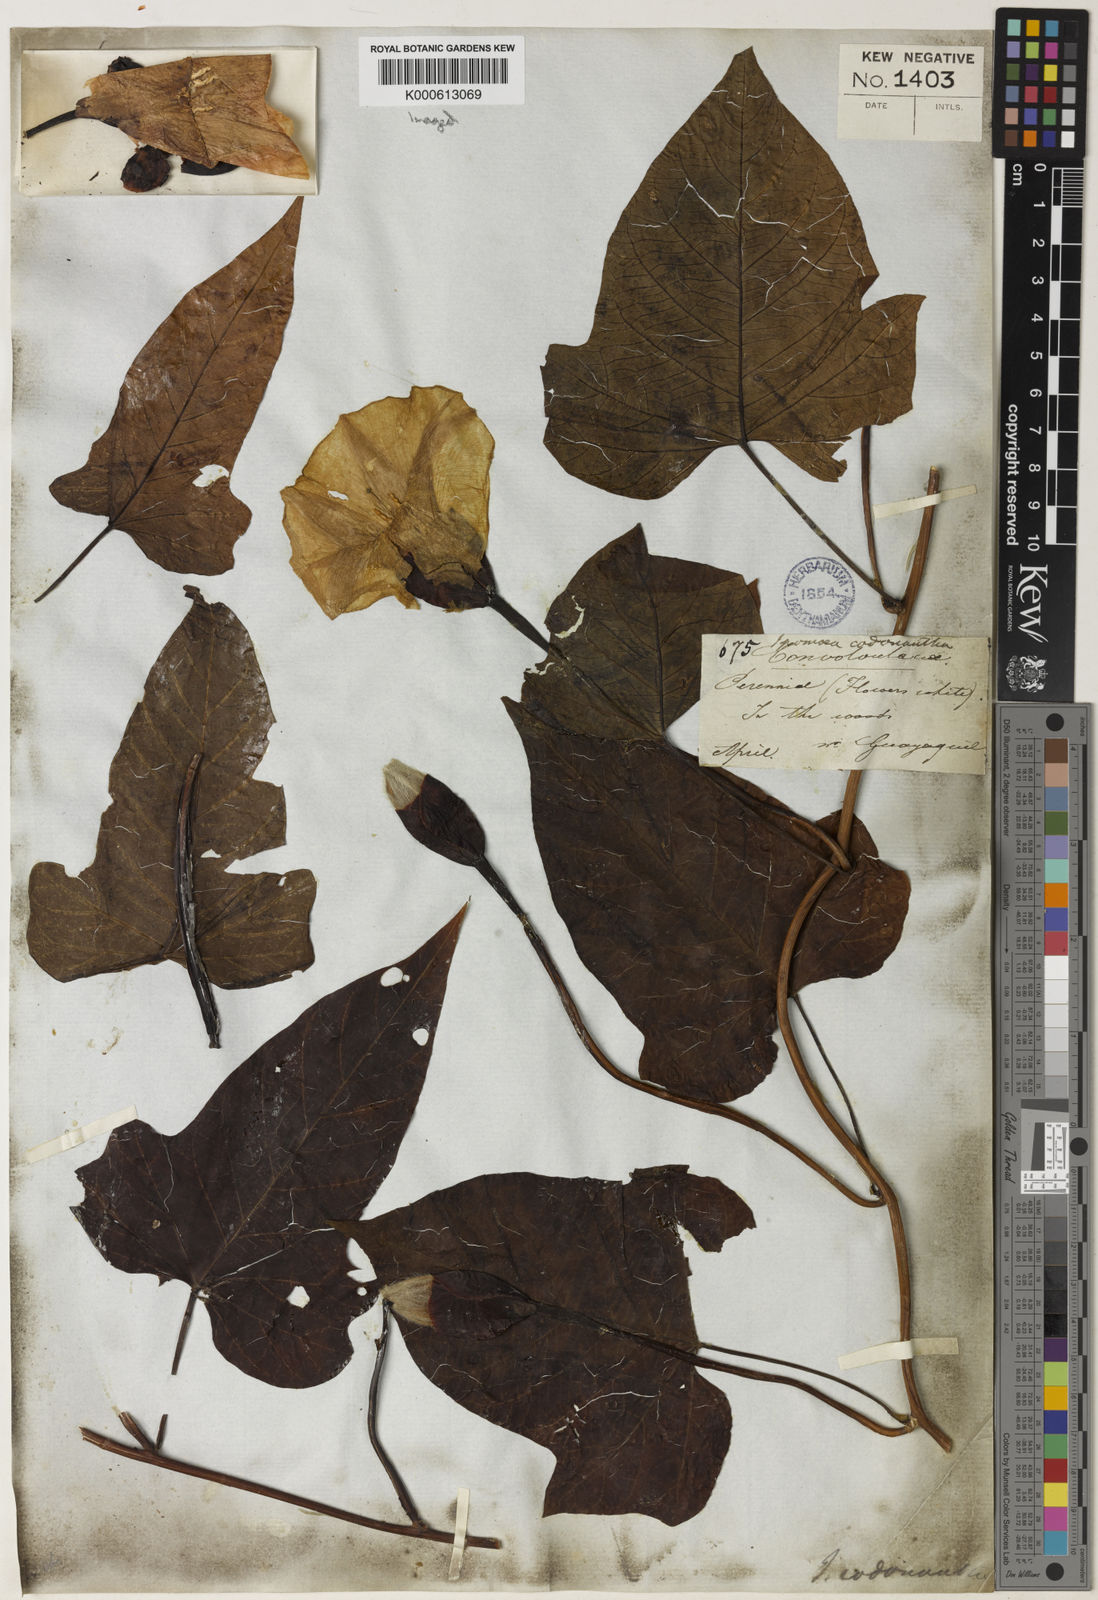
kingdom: Plantae
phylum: Tracheophyta
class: Magnoliopsida
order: Solanales
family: Convolvulaceae
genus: Operculina
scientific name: Operculina codonantha
